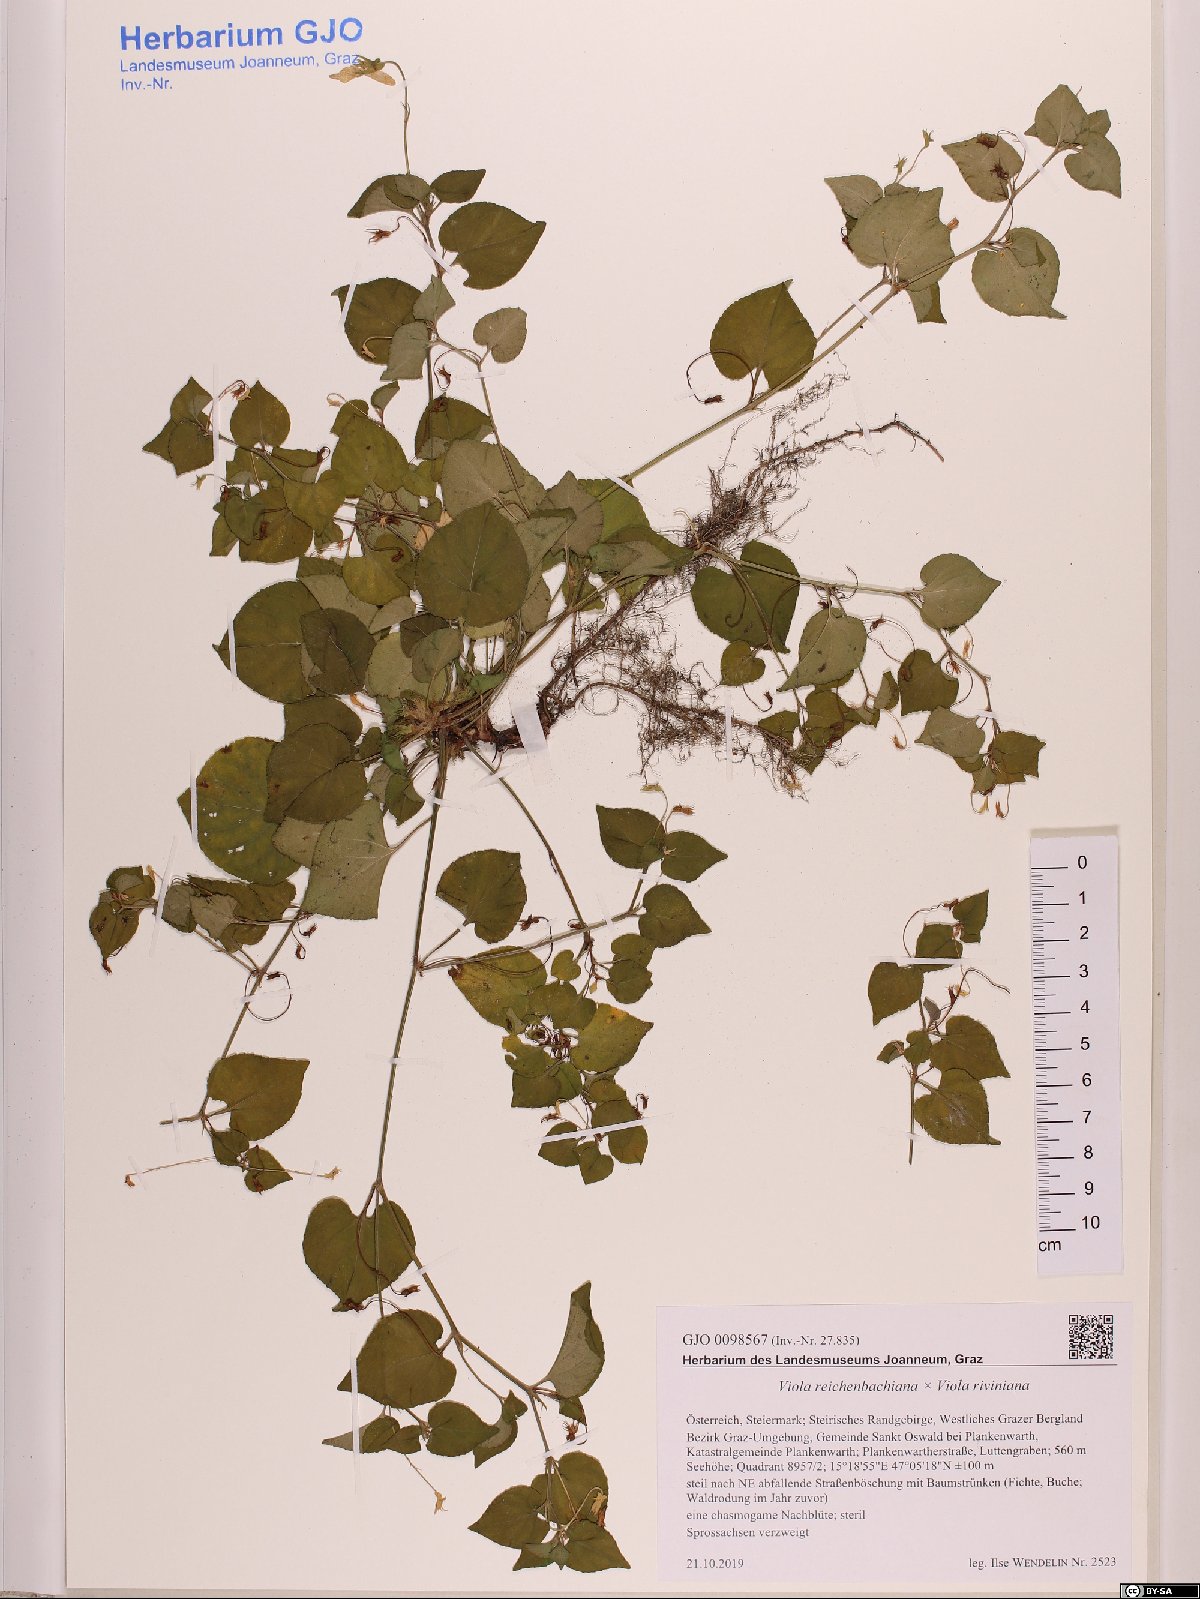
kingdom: Plantae
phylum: Tracheophyta
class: Magnoliopsida
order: Malpighiales
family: Violaceae
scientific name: Violaceae
